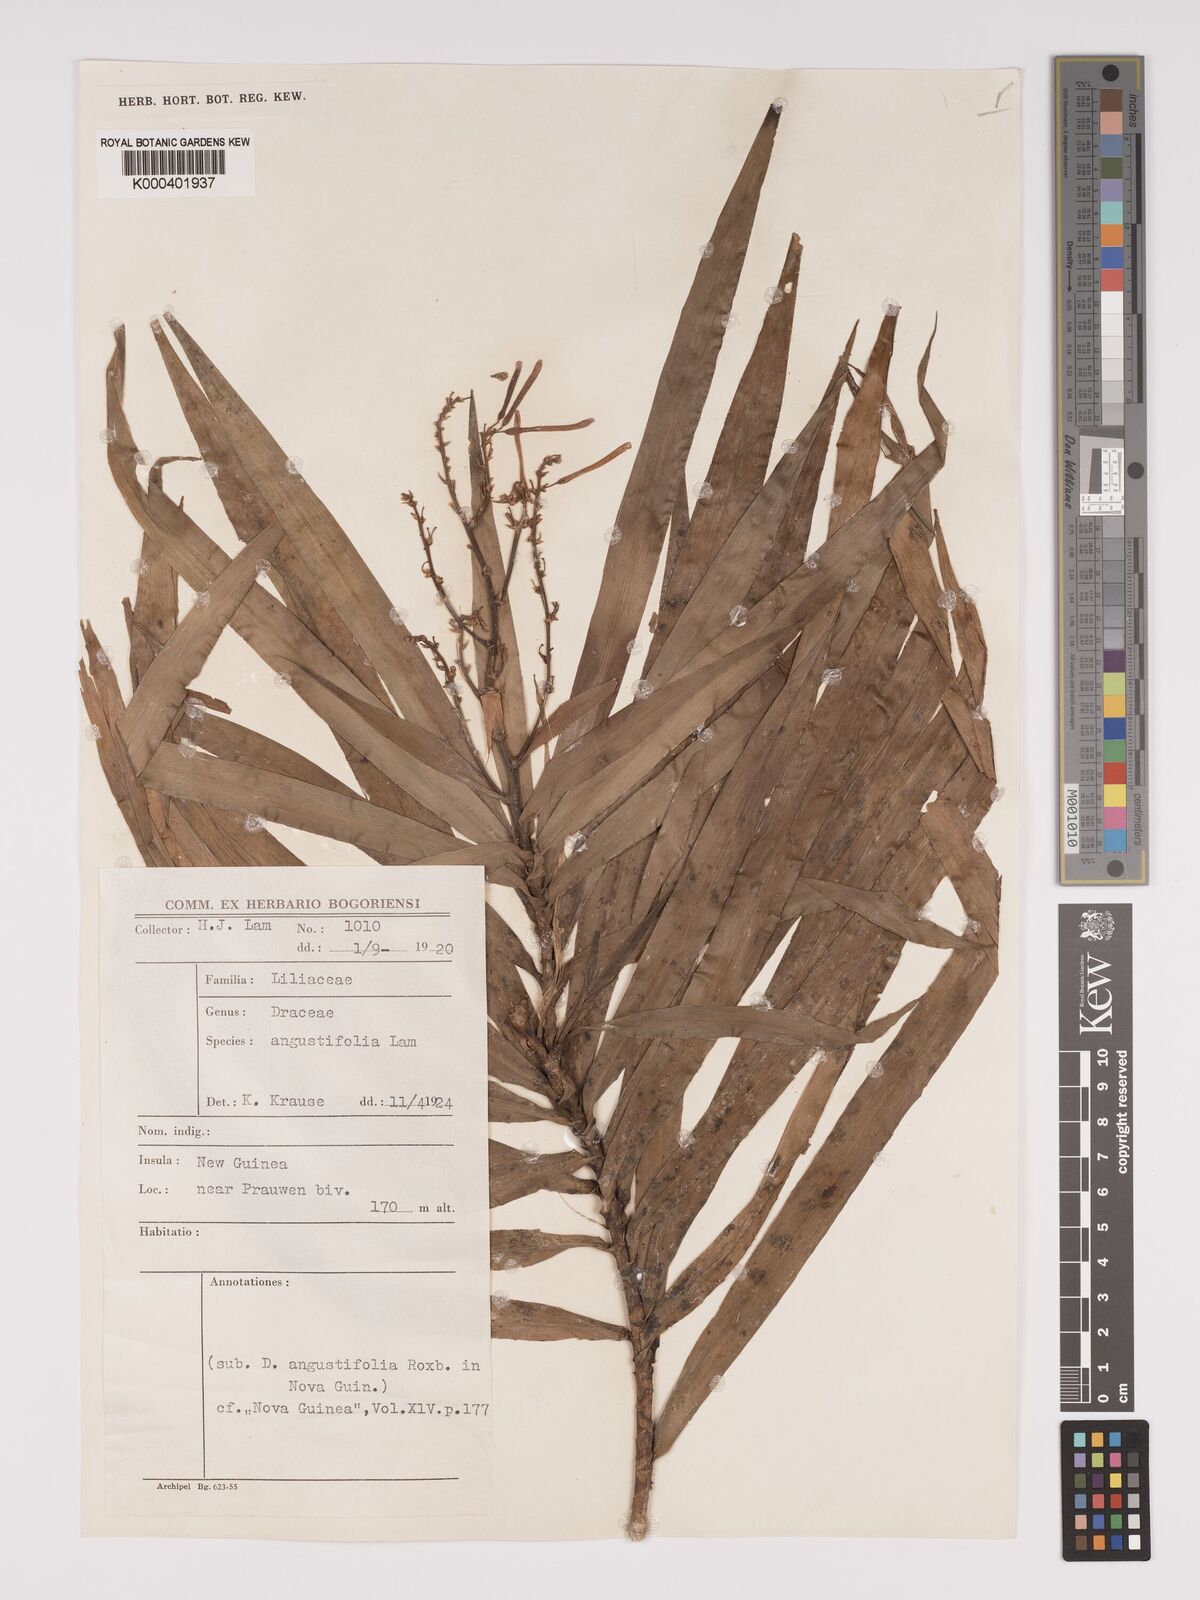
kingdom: Plantae
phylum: Tracheophyta
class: Liliopsida
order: Asparagales
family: Asparagaceae
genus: Dracaena
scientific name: Dracaena angustifolia
